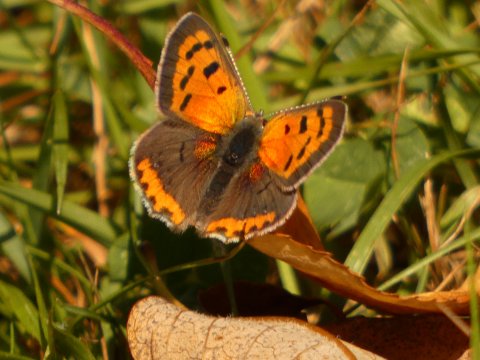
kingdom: Animalia
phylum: Arthropoda
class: Insecta
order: Lepidoptera
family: Lycaenidae
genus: Lycaena
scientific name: Lycaena phlaeas
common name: American Copper
